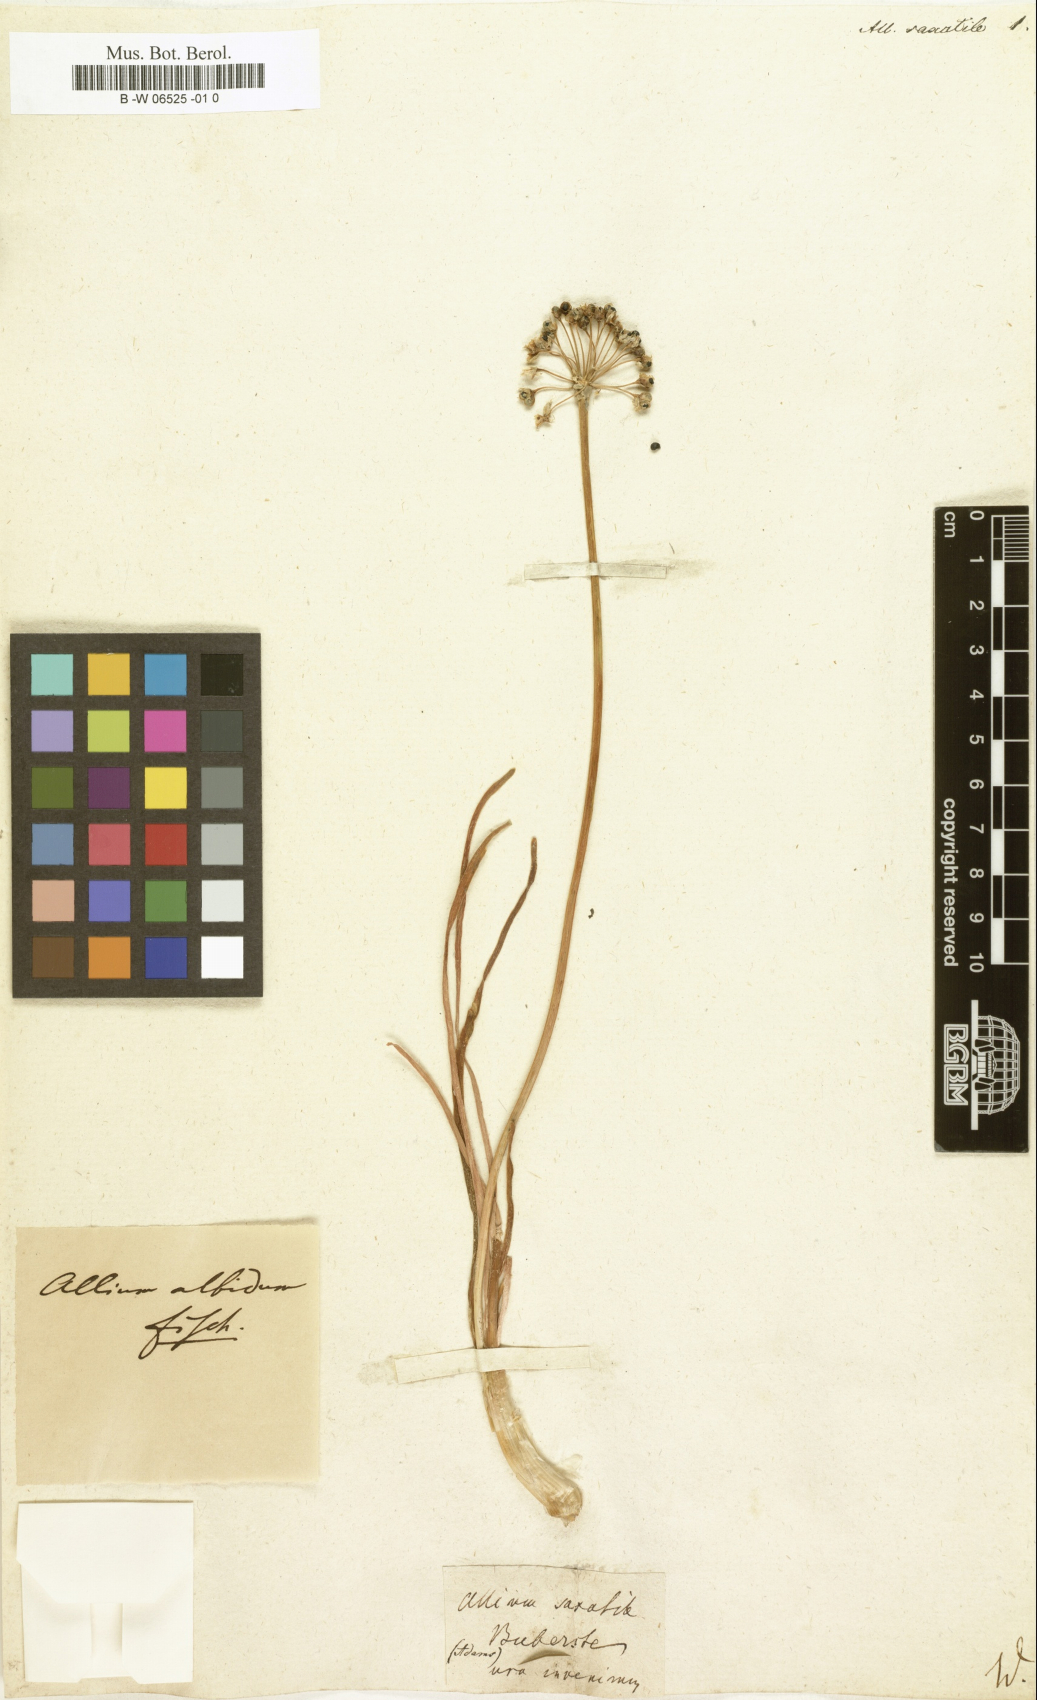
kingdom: Plantae
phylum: Tracheophyta
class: Liliopsida
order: Asparagales
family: Amaryllidaceae
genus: Allium
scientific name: Allium saxatile
